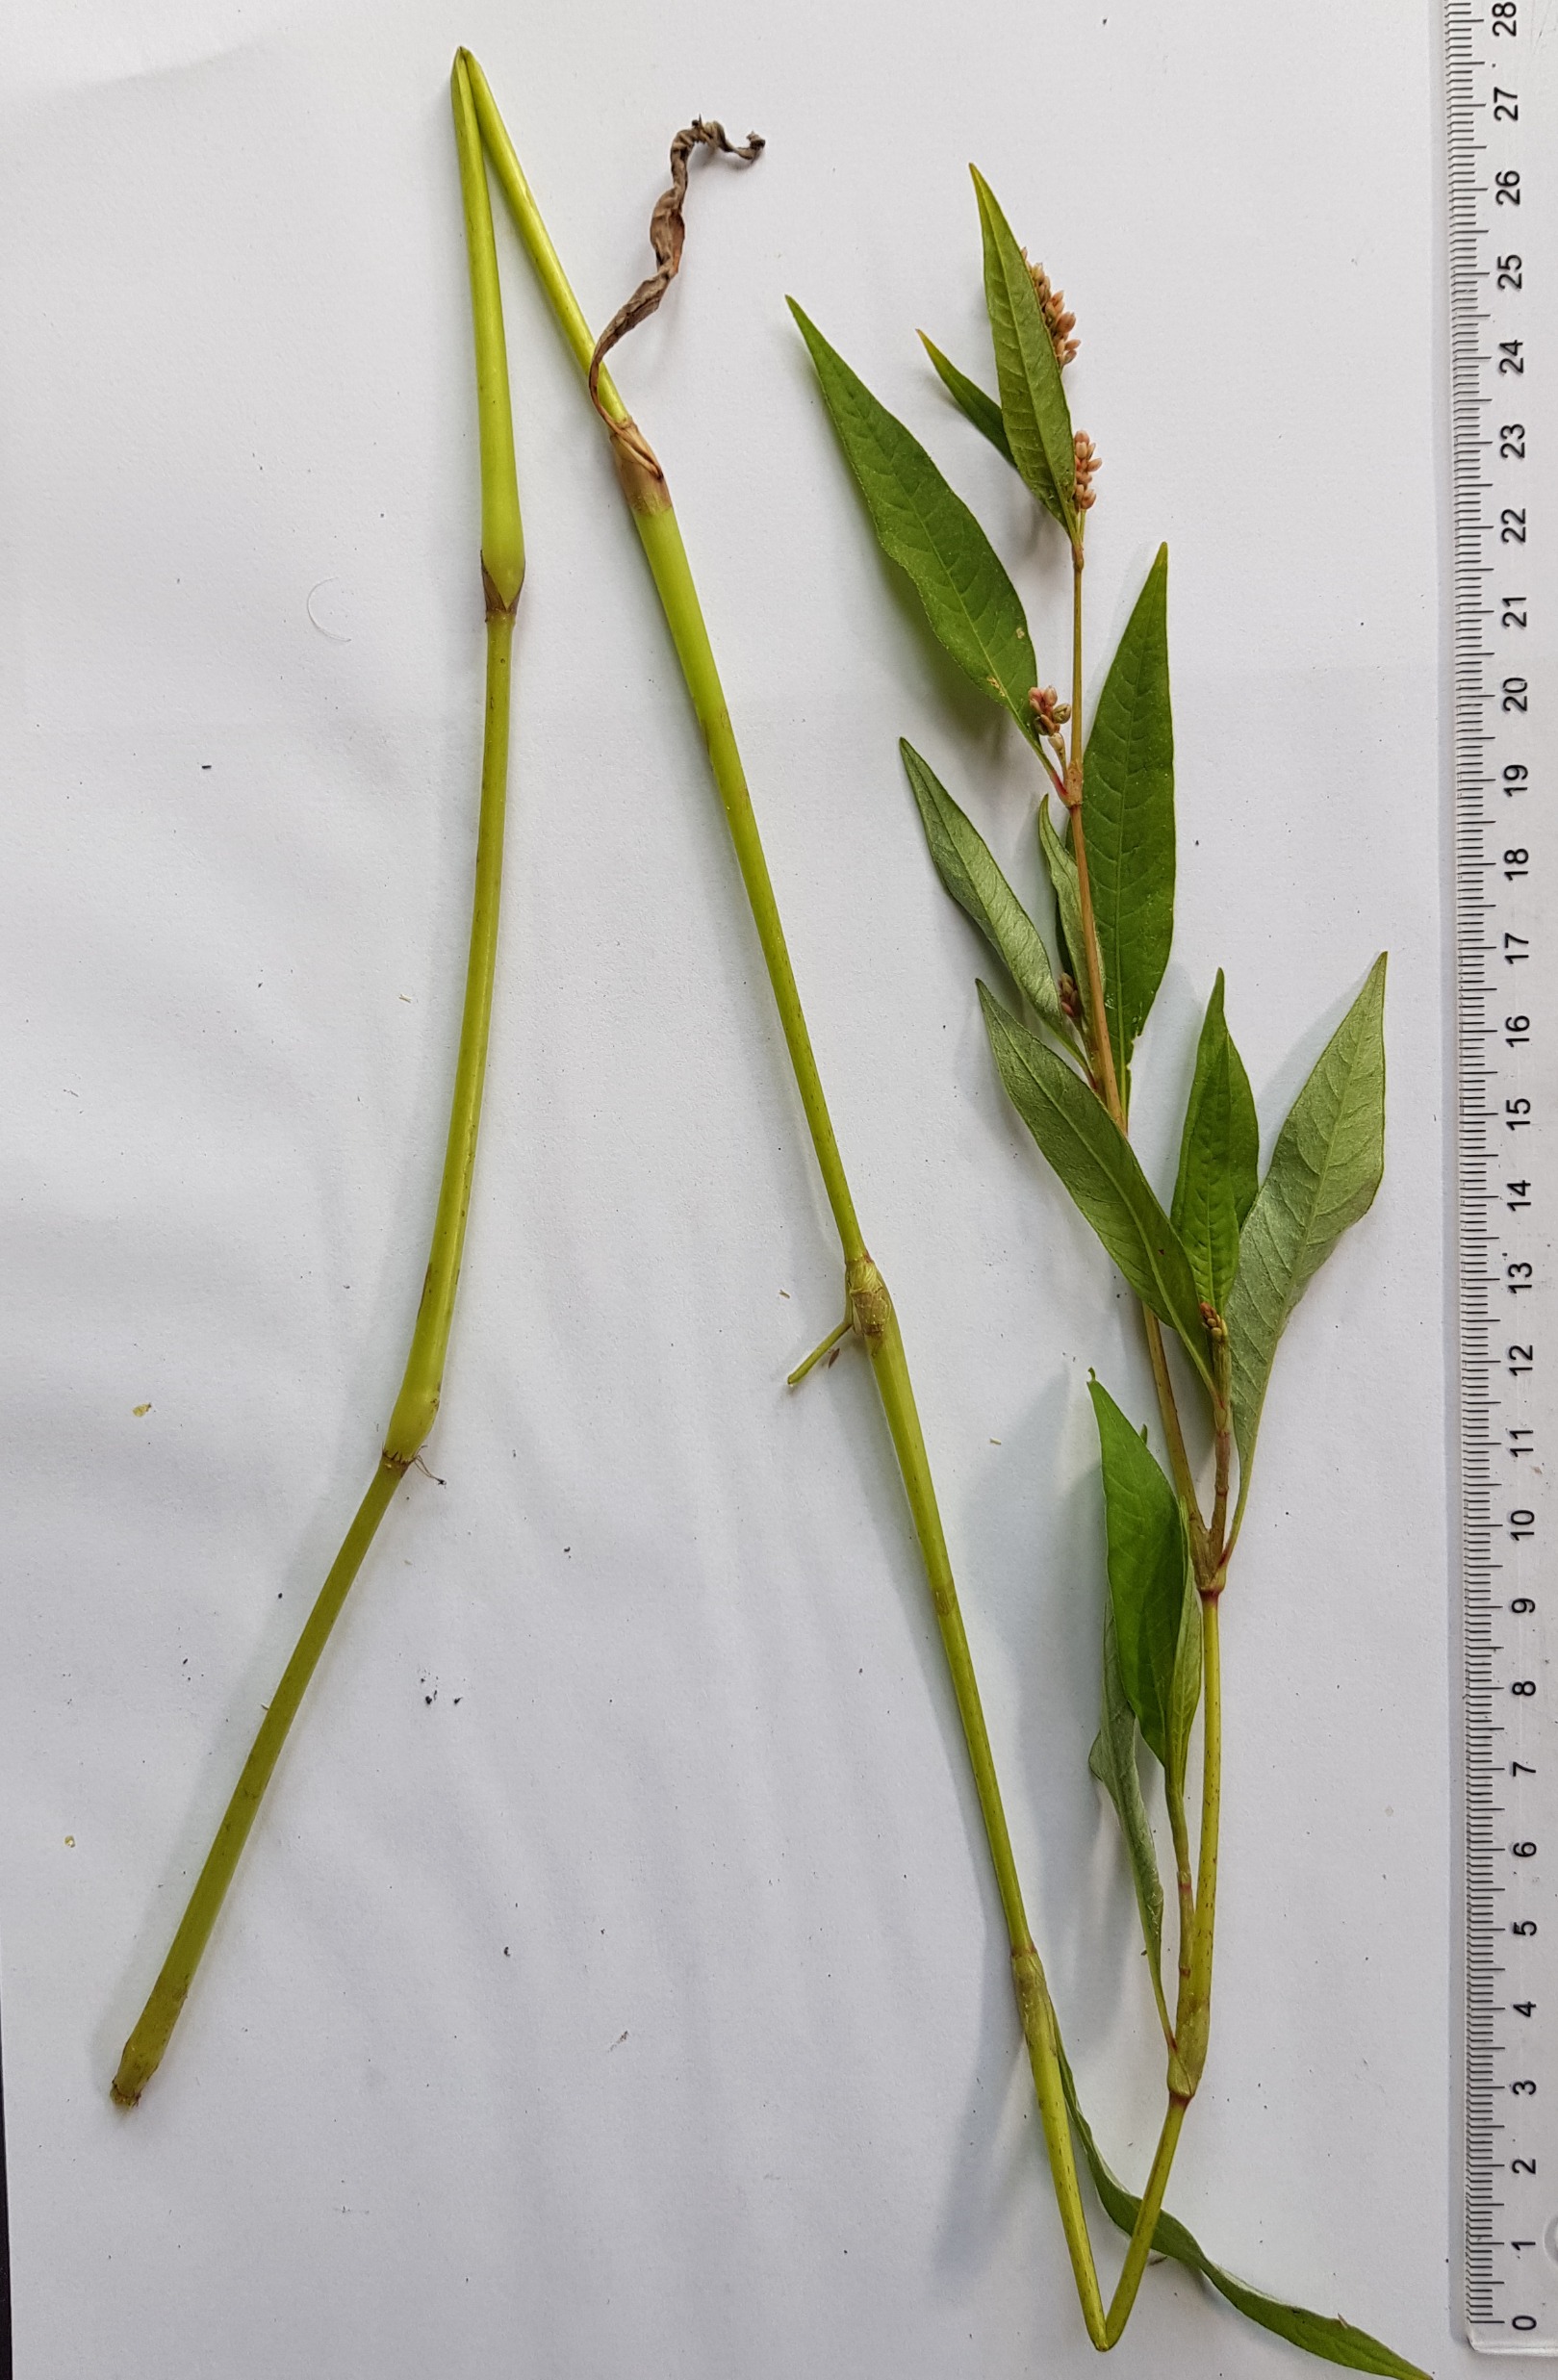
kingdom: Plantae
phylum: Tracheophyta
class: Magnoliopsida
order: Caryophyllales
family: Polygonaceae
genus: Persicaria
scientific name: Persicaria lapathifolia
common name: Knudet pileurt (underart)
